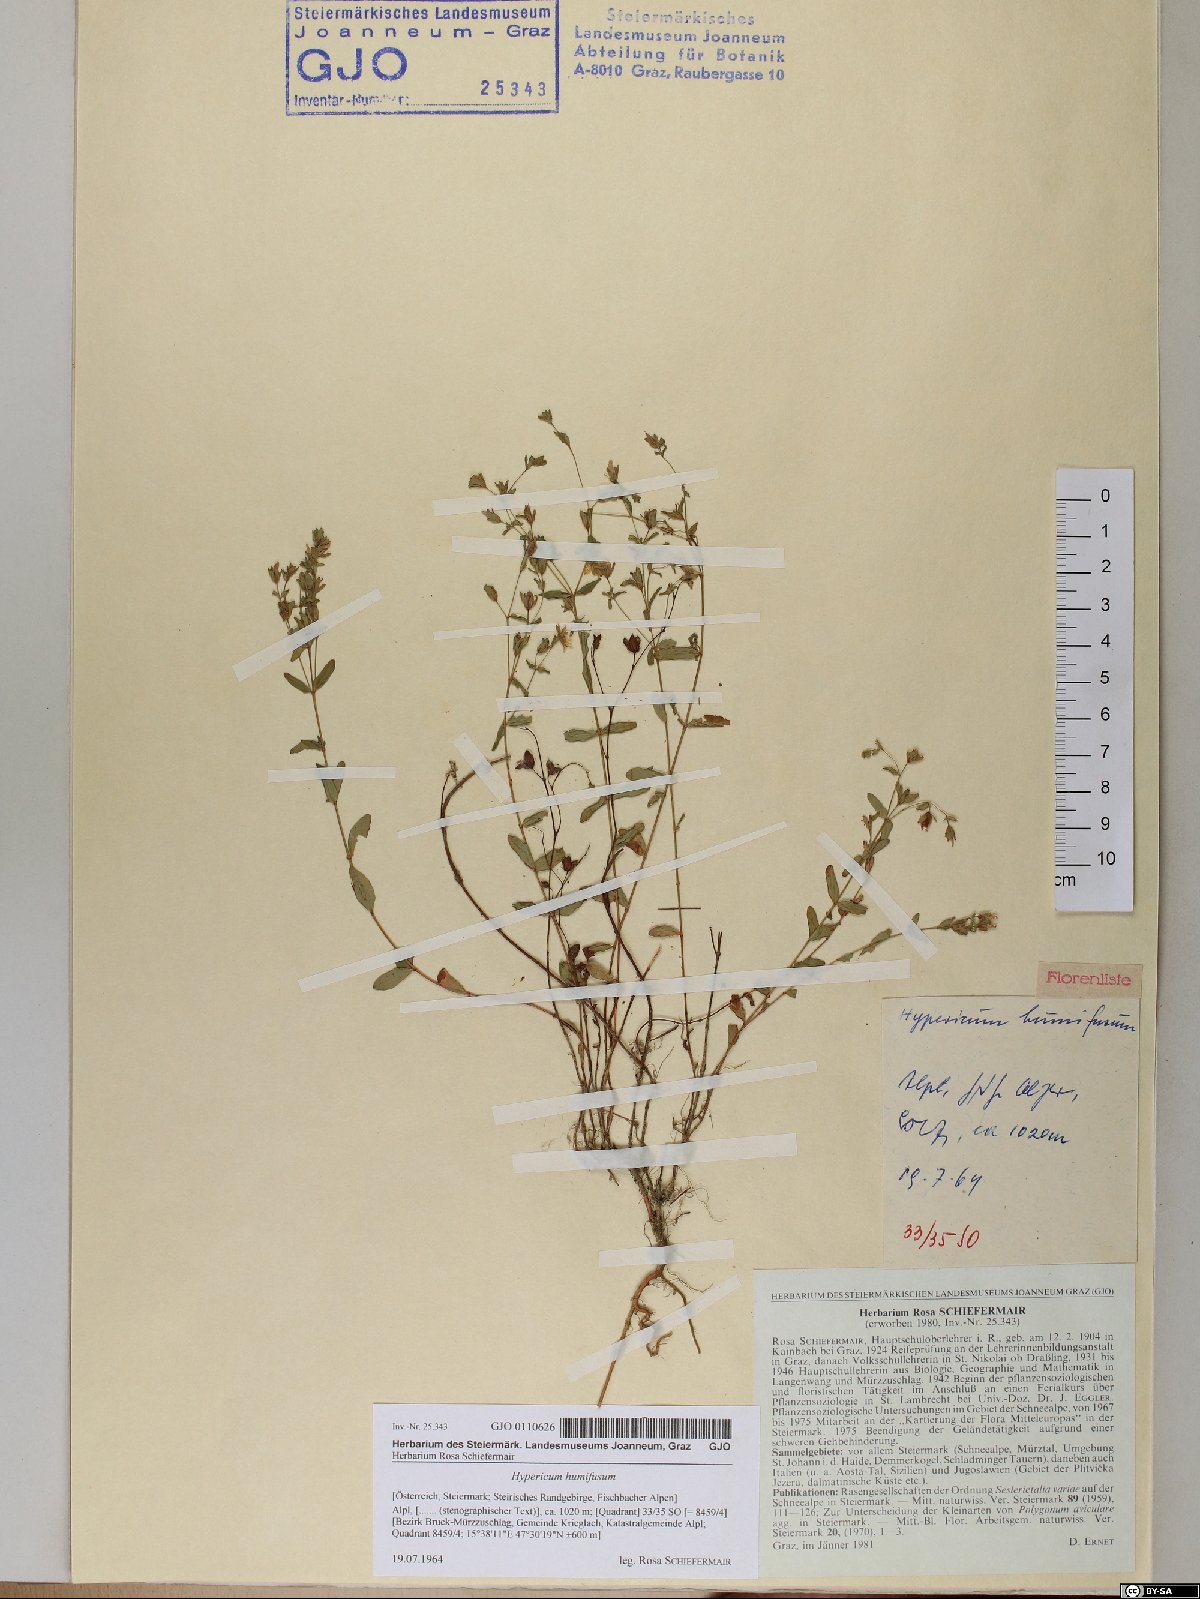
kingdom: Plantae
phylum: Tracheophyta
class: Magnoliopsida
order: Malpighiales
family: Hypericaceae
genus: Hypericum
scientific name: Hypericum humifusum
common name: Trailing st. john's-wort
